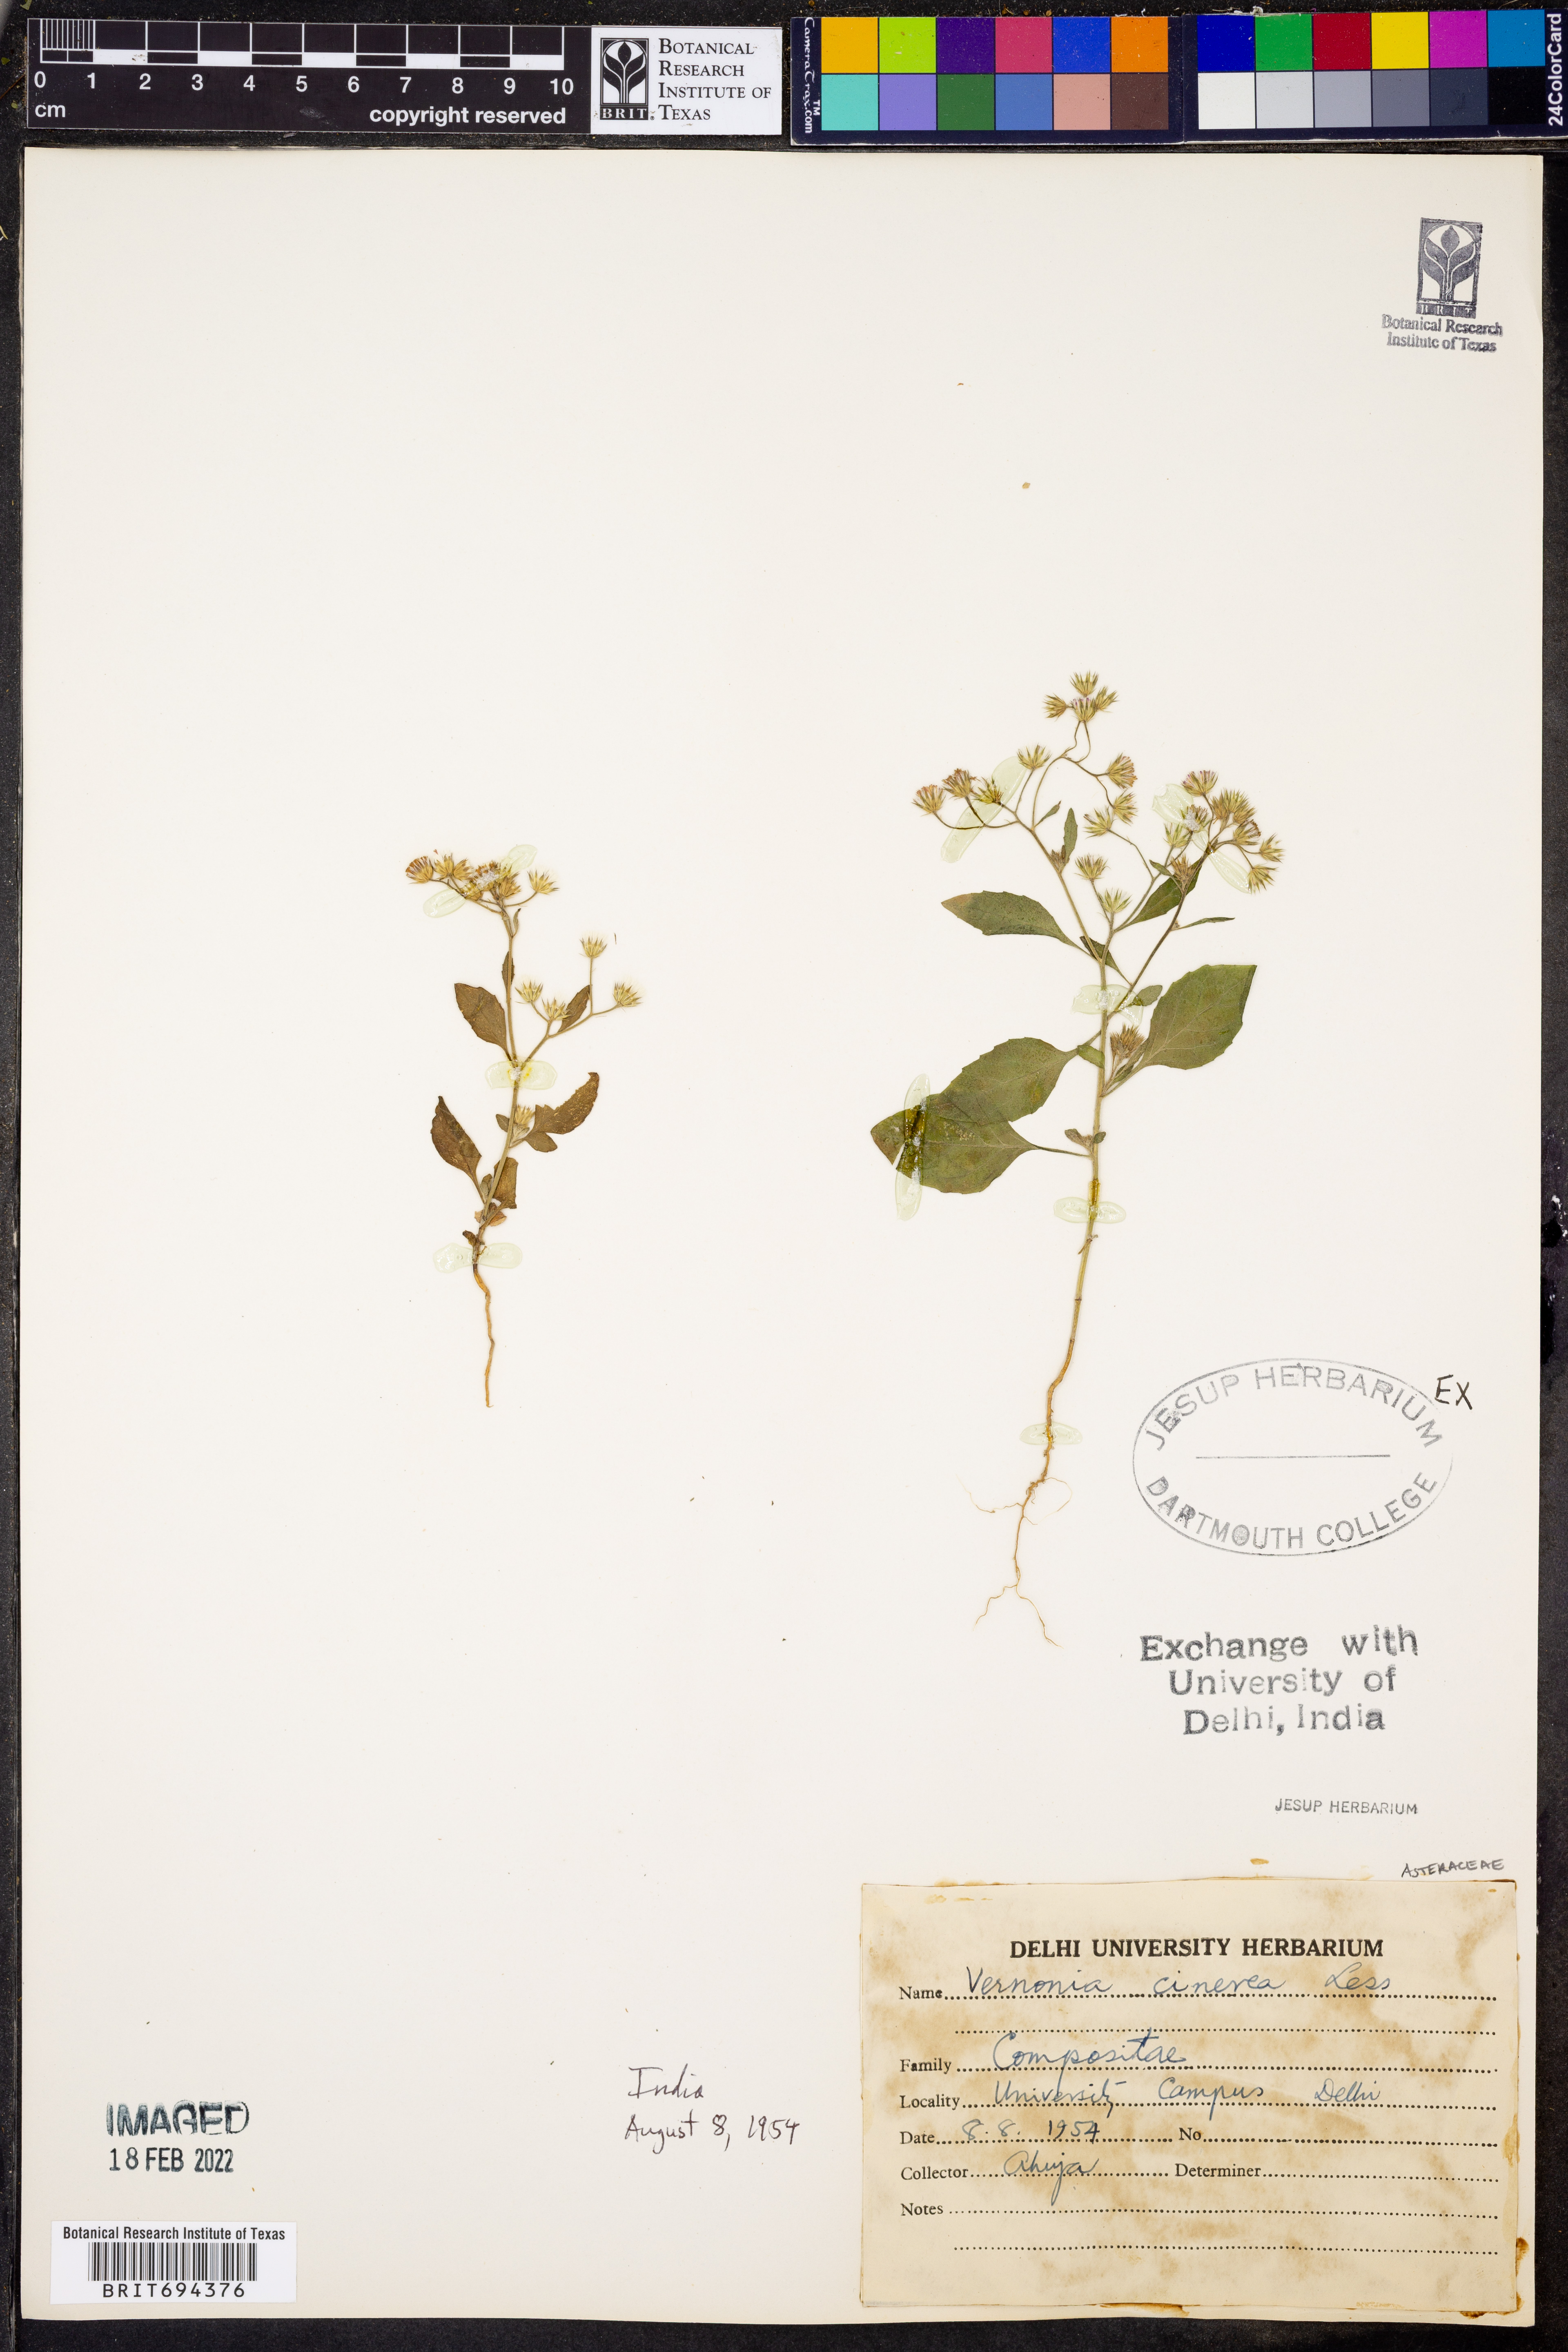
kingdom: Plantae
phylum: Tracheophyta
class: Magnoliopsida
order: Asterales
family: Asteraceae
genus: Cyanthillium
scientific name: Cyanthillium cinereum
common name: Little ironweed
